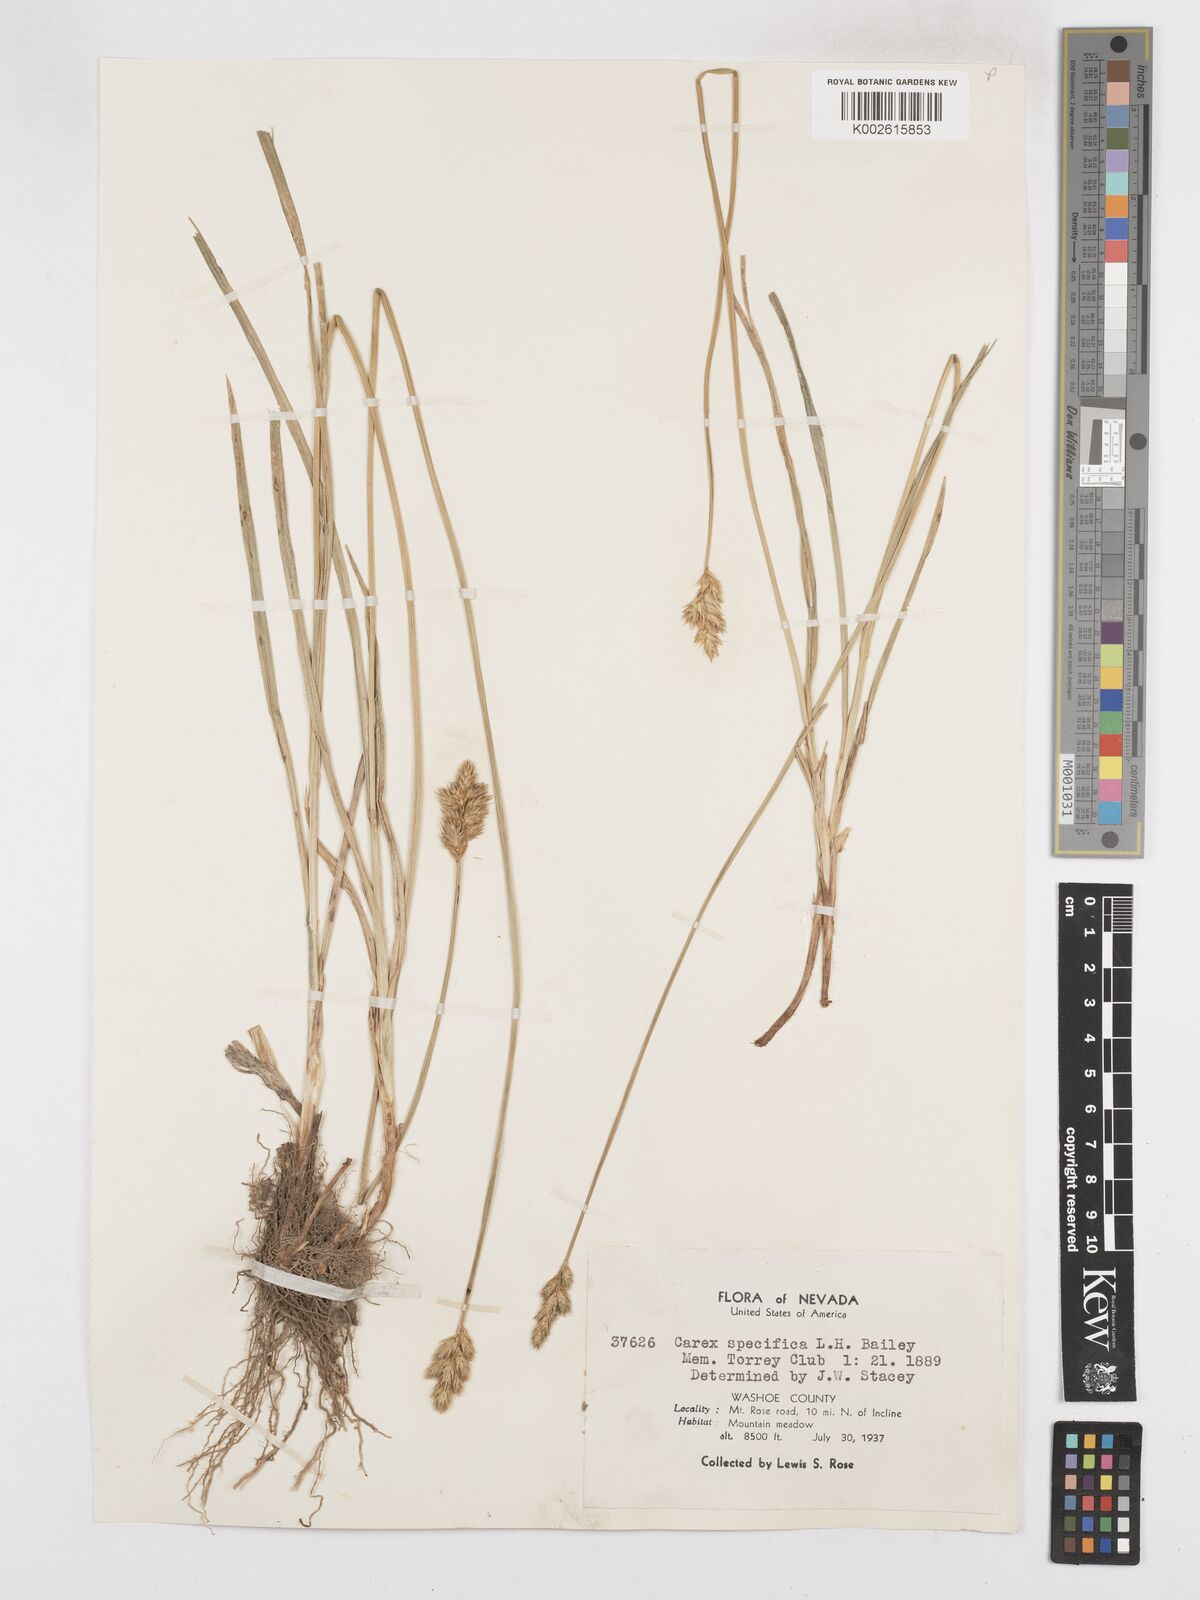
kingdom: Plantae
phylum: Tracheophyta
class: Liliopsida
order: Poales
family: Cyperaceae
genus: Carex
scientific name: Carex specifica
